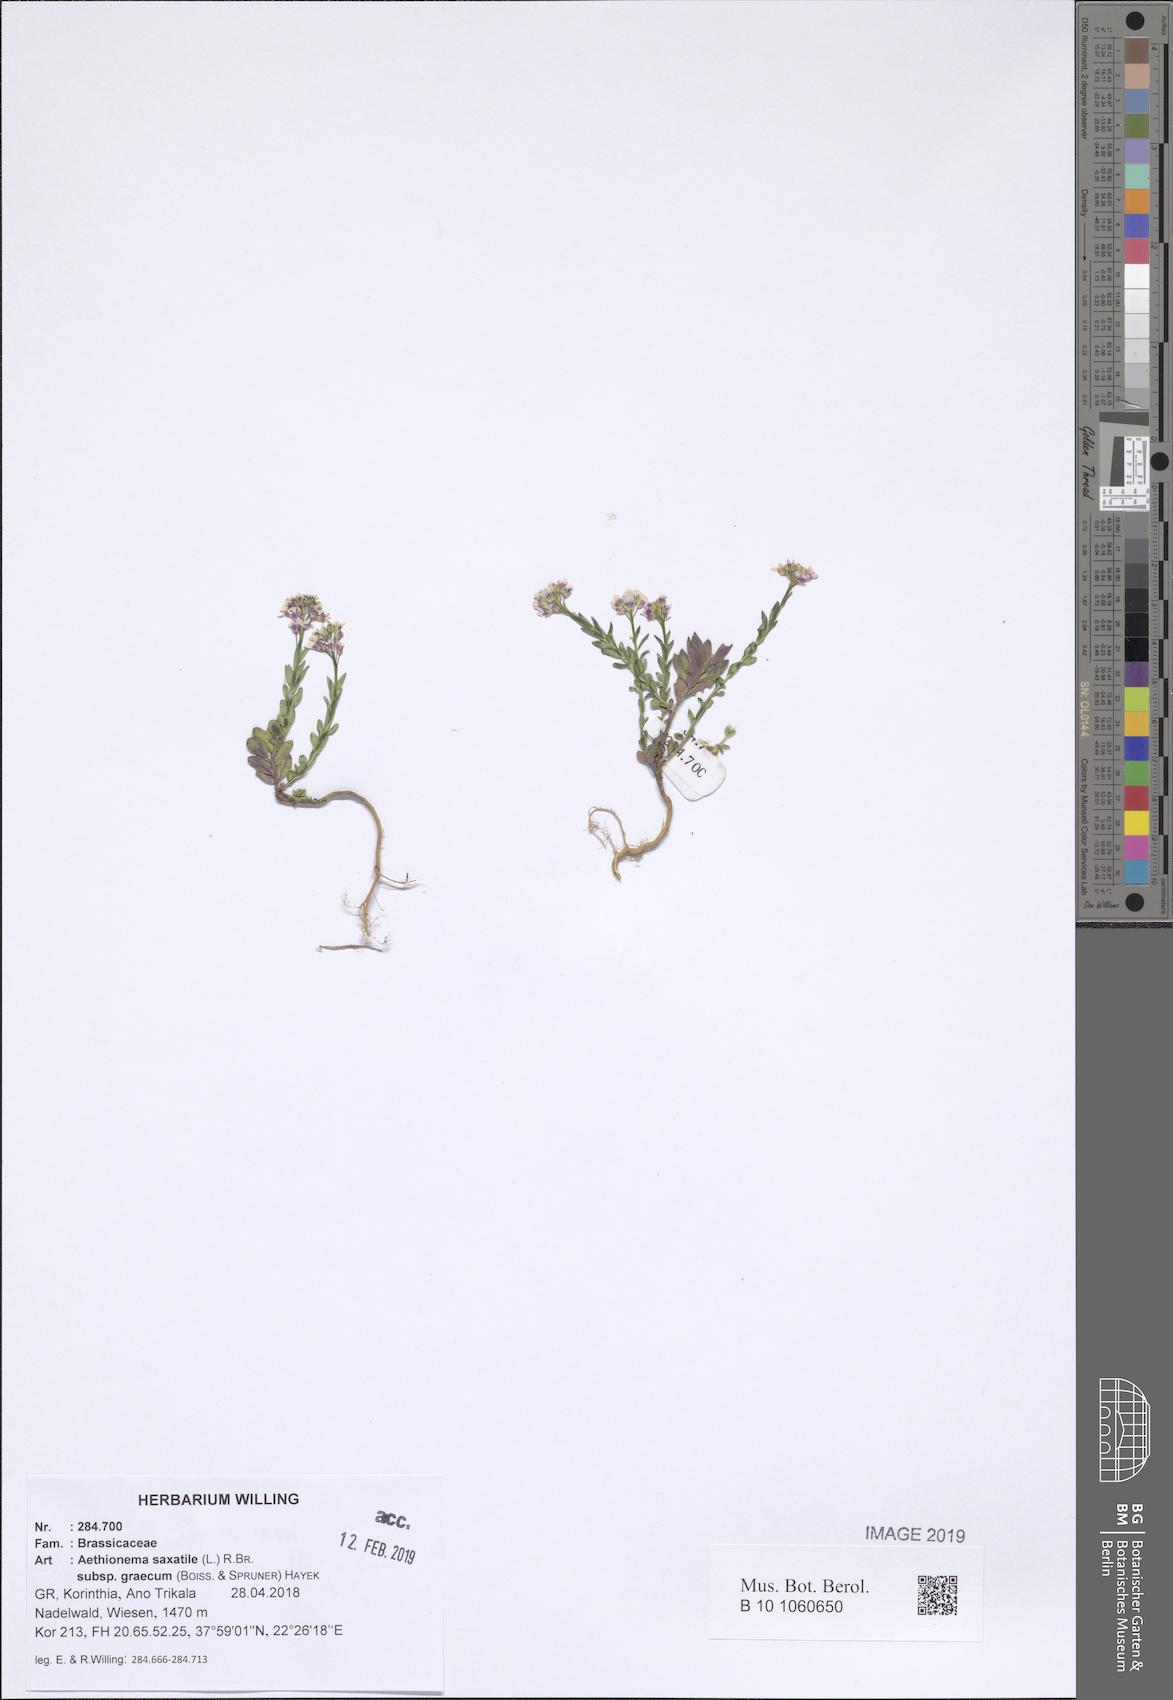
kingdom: Plantae
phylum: Tracheophyta
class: Magnoliopsida
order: Brassicales
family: Brassicaceae
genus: Aethionema
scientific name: Aethionema saxatile
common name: Burnt candytuft
